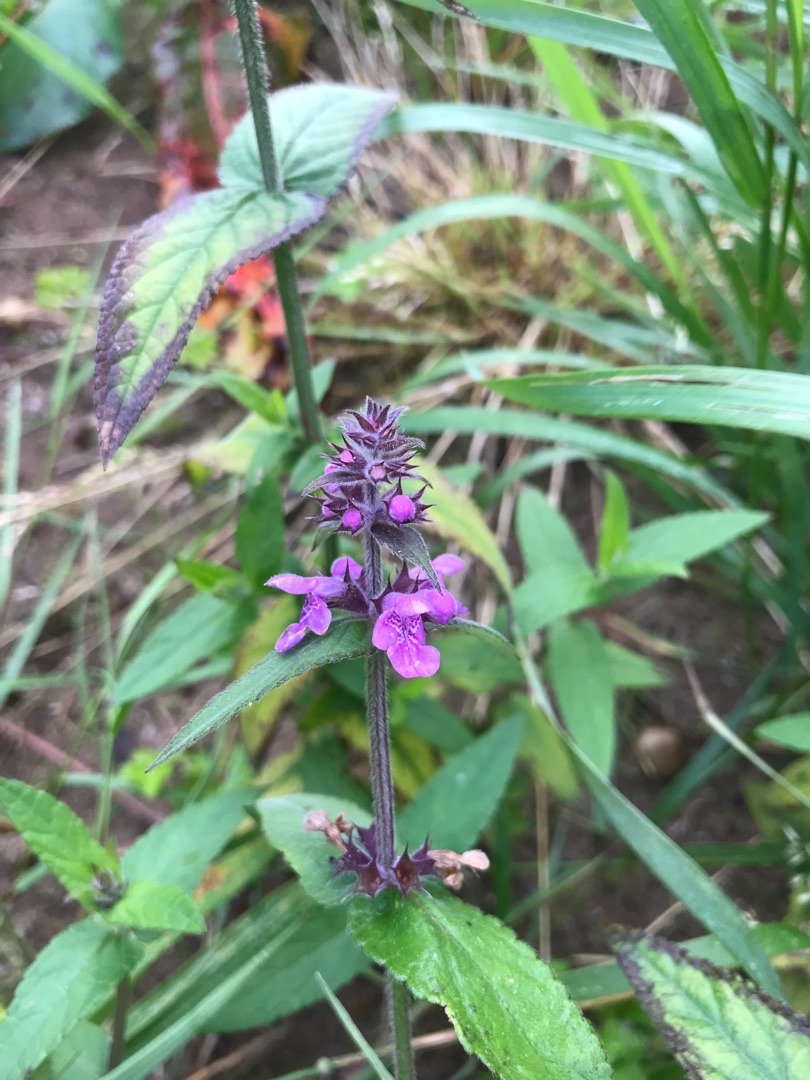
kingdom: Plantae
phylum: Tracheophyta
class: Magnoliopsida
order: Lamiales
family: Lamiaceae
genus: Stachys
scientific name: Stachys palustris
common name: Kær-galtetand
